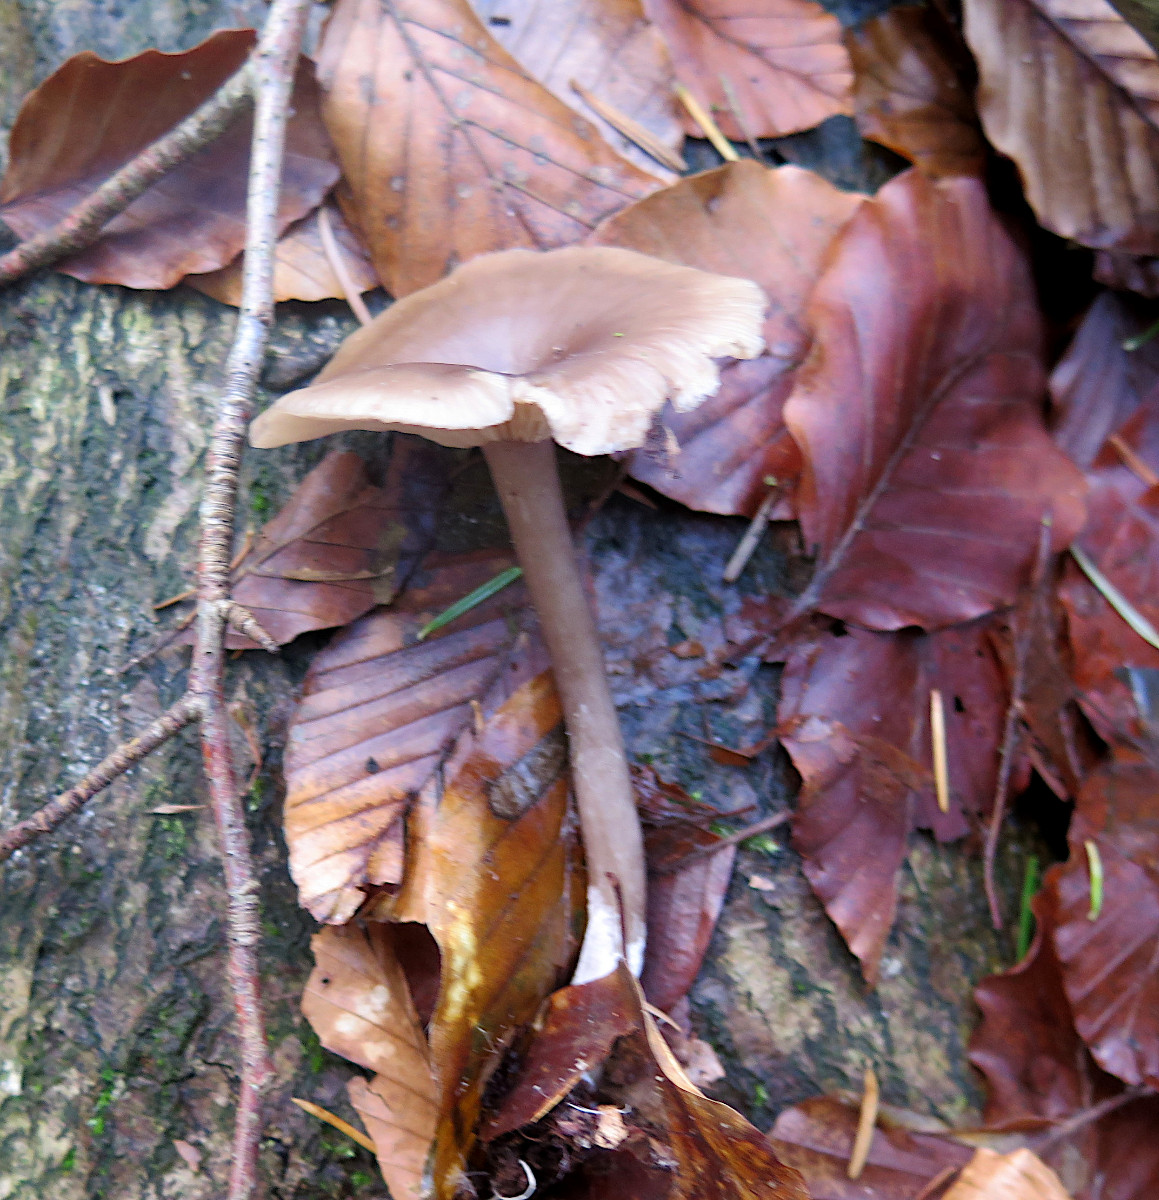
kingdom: Fungi
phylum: Basidiomycota
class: Agaricomycetes
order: Agaricales
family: Pseudoclitocybaceae
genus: Pseudoclitocybe
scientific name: Pseudoclitocybe cyathiformis
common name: almindelig bægertragthat
